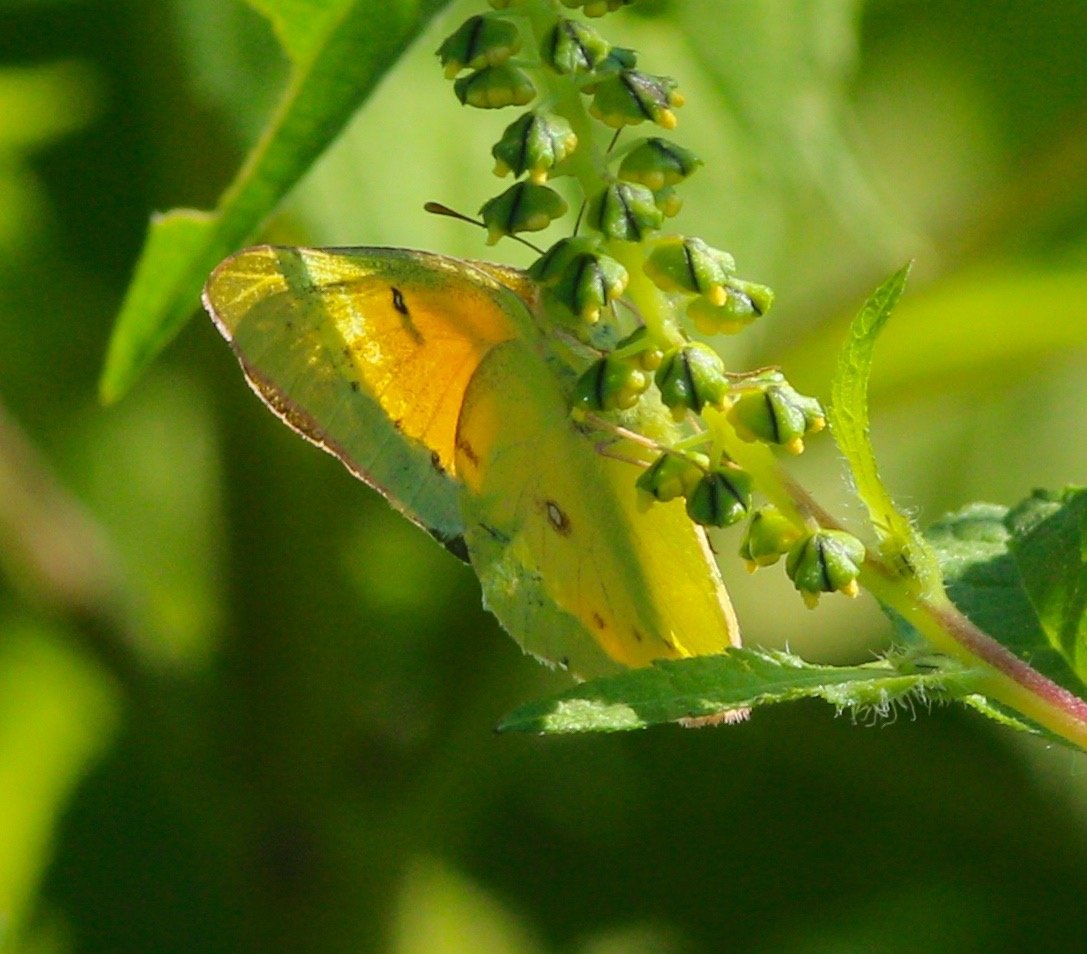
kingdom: Animalia
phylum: Arthropoda
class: Insecta
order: Lepidoptera
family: Pieridae
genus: Colias
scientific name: Colias eurytheme
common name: Orange Sulphur
